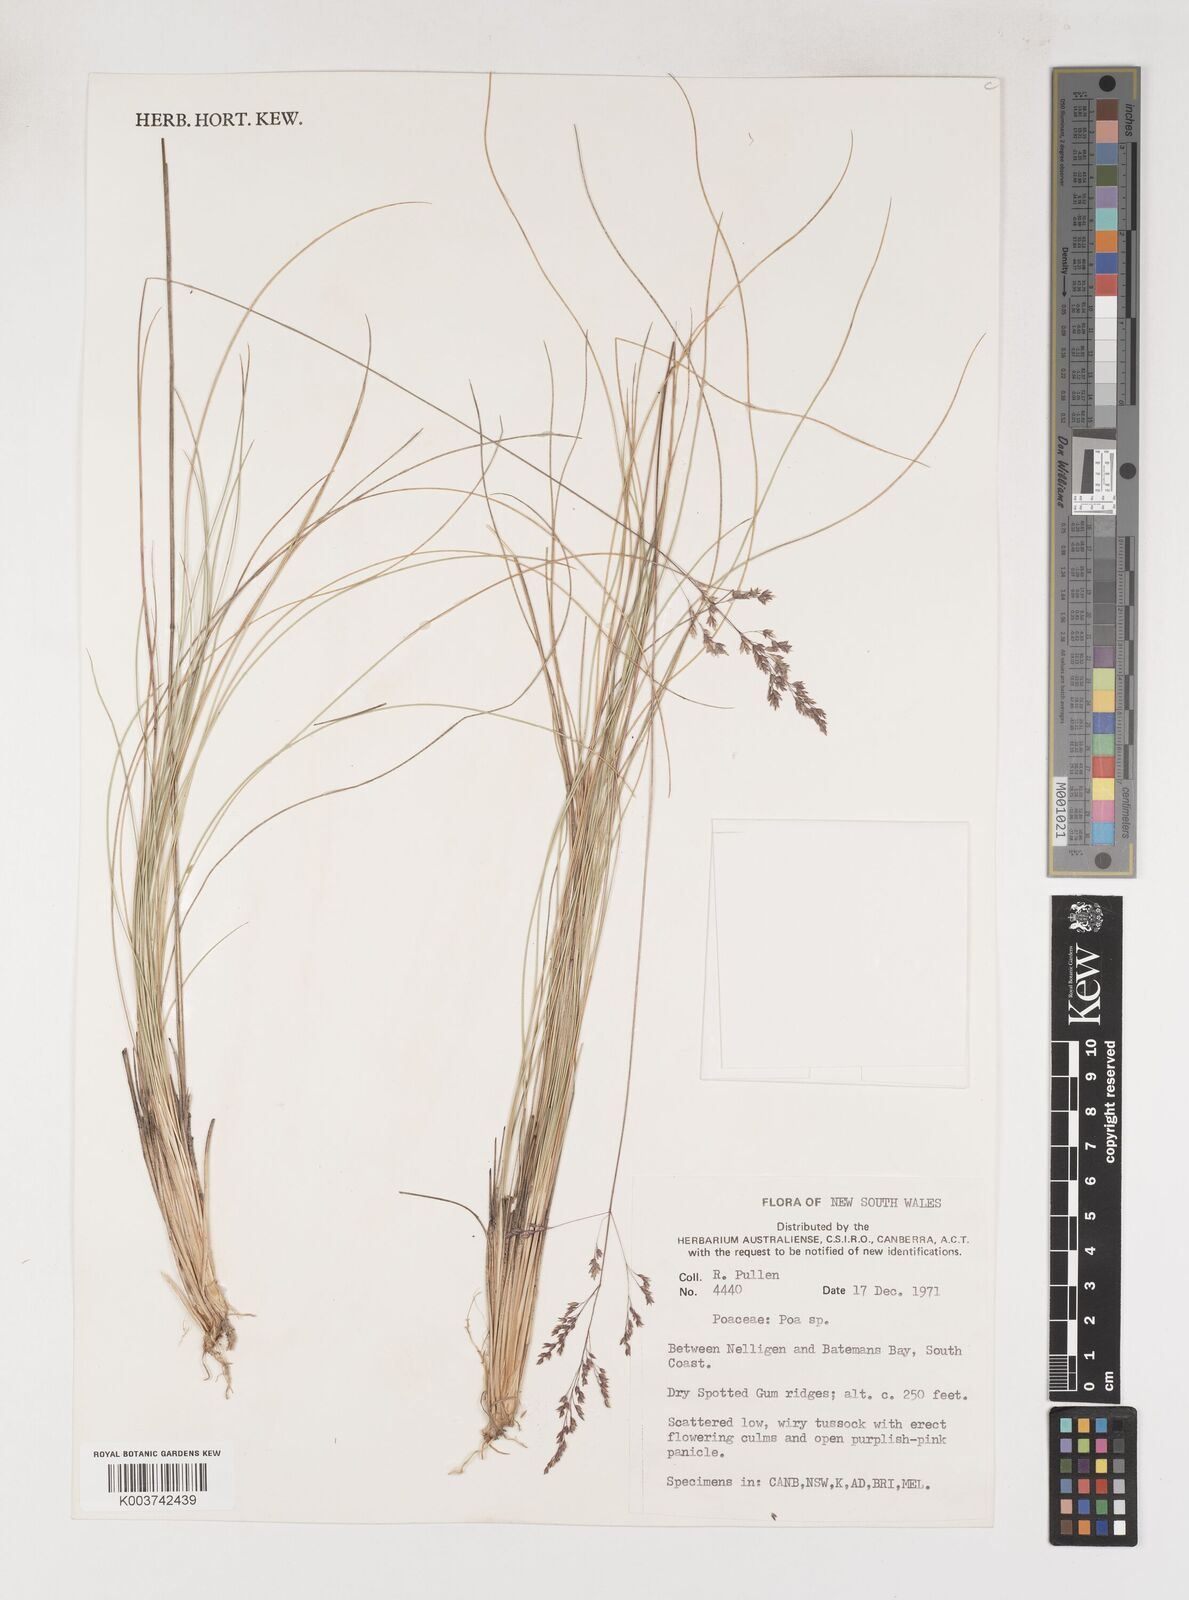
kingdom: Plantae
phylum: Tracheophyta
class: Liliopsida
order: Poales
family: Poaceae
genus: Poa
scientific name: Poa
